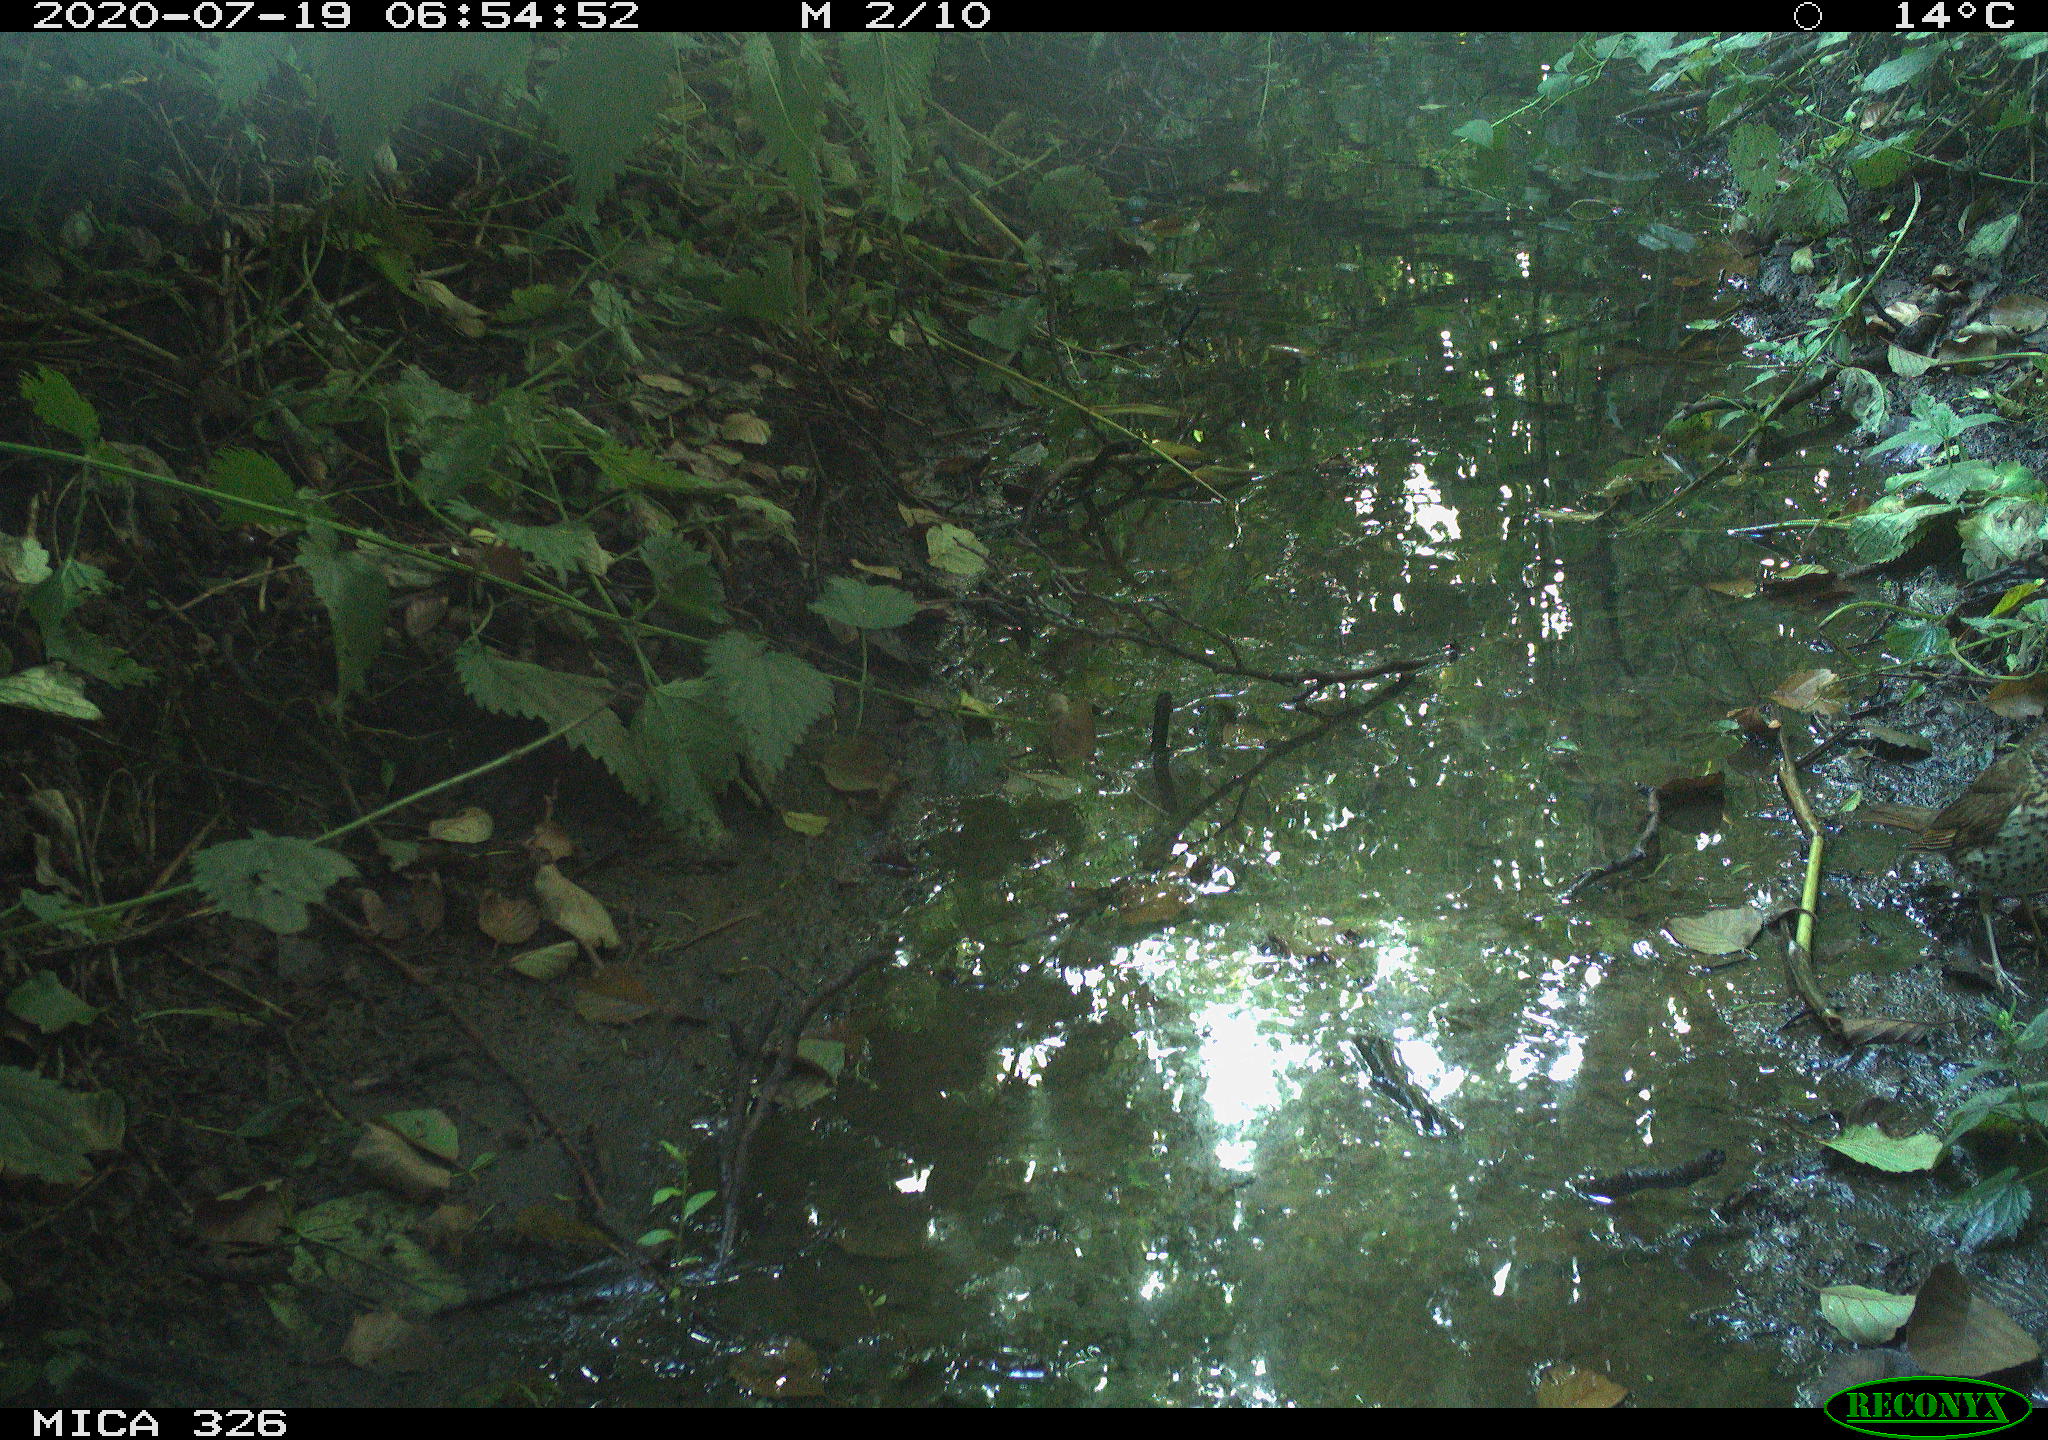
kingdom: Animalia
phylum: Chordata
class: Aves
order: Passeriformes
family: Turdidae
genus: Turdus
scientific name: Turdus philomelos
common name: Song thrush
